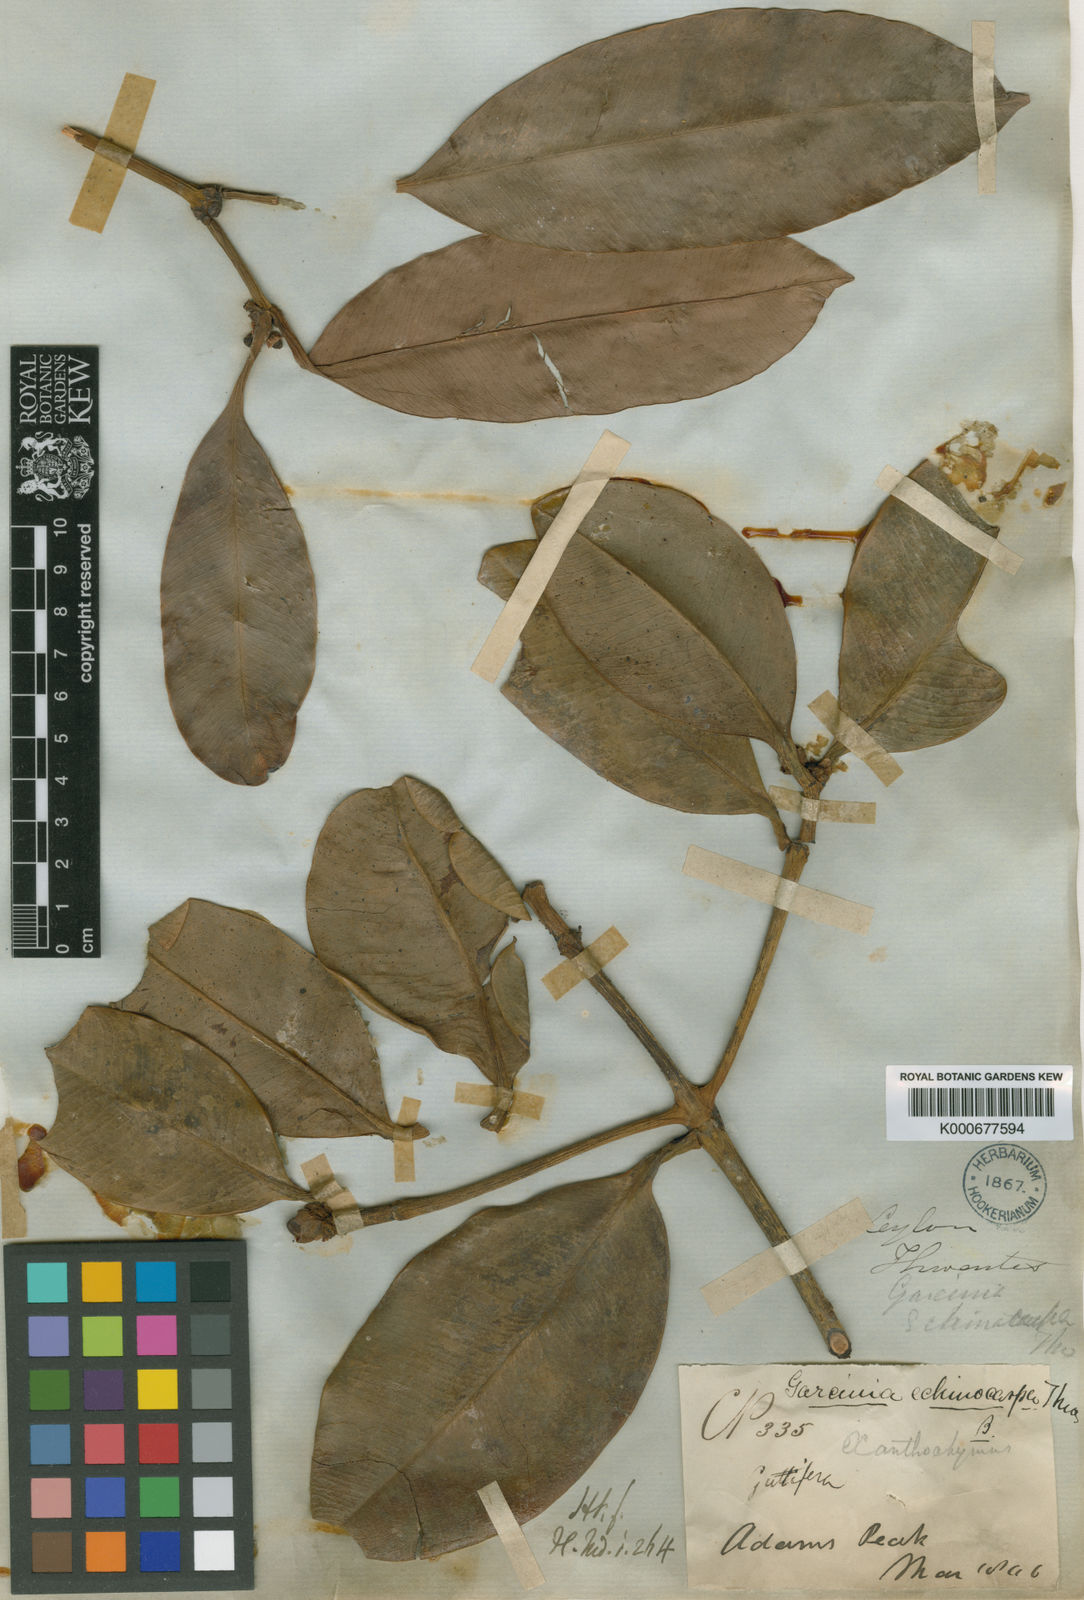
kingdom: Plantae
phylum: Tracheophyta
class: Magnoliopsida
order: Malpighiales
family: Clusiaceae
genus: Garcinia
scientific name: Garcinia echinocarpa
